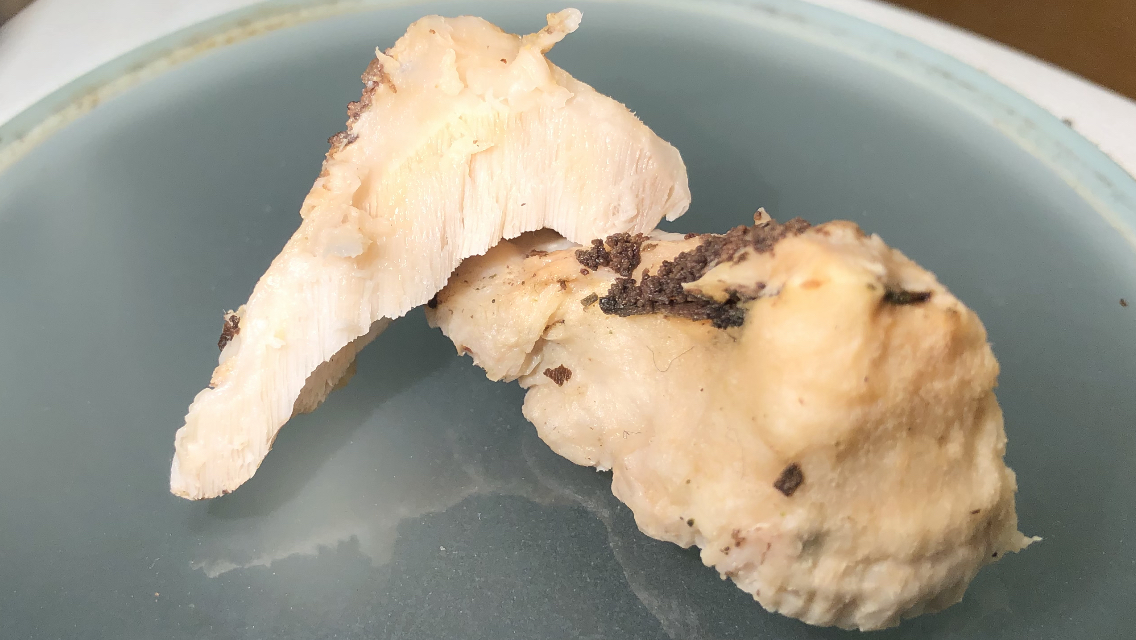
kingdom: Fungi
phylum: Basidiomycota
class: Agaricomycetes
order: Polyporales
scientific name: Polyporales
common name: poresvampordenen
